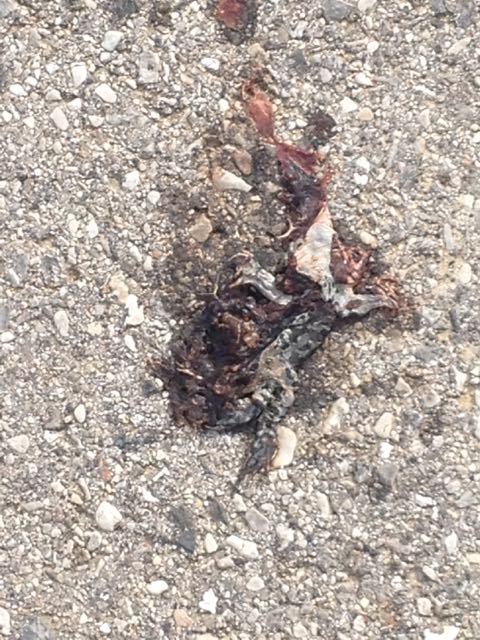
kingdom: Animalia
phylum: Chordata
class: Amphibia
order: Anura
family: Bufonidae
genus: Bufotes
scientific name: Bufotes viridis
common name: European green toad
